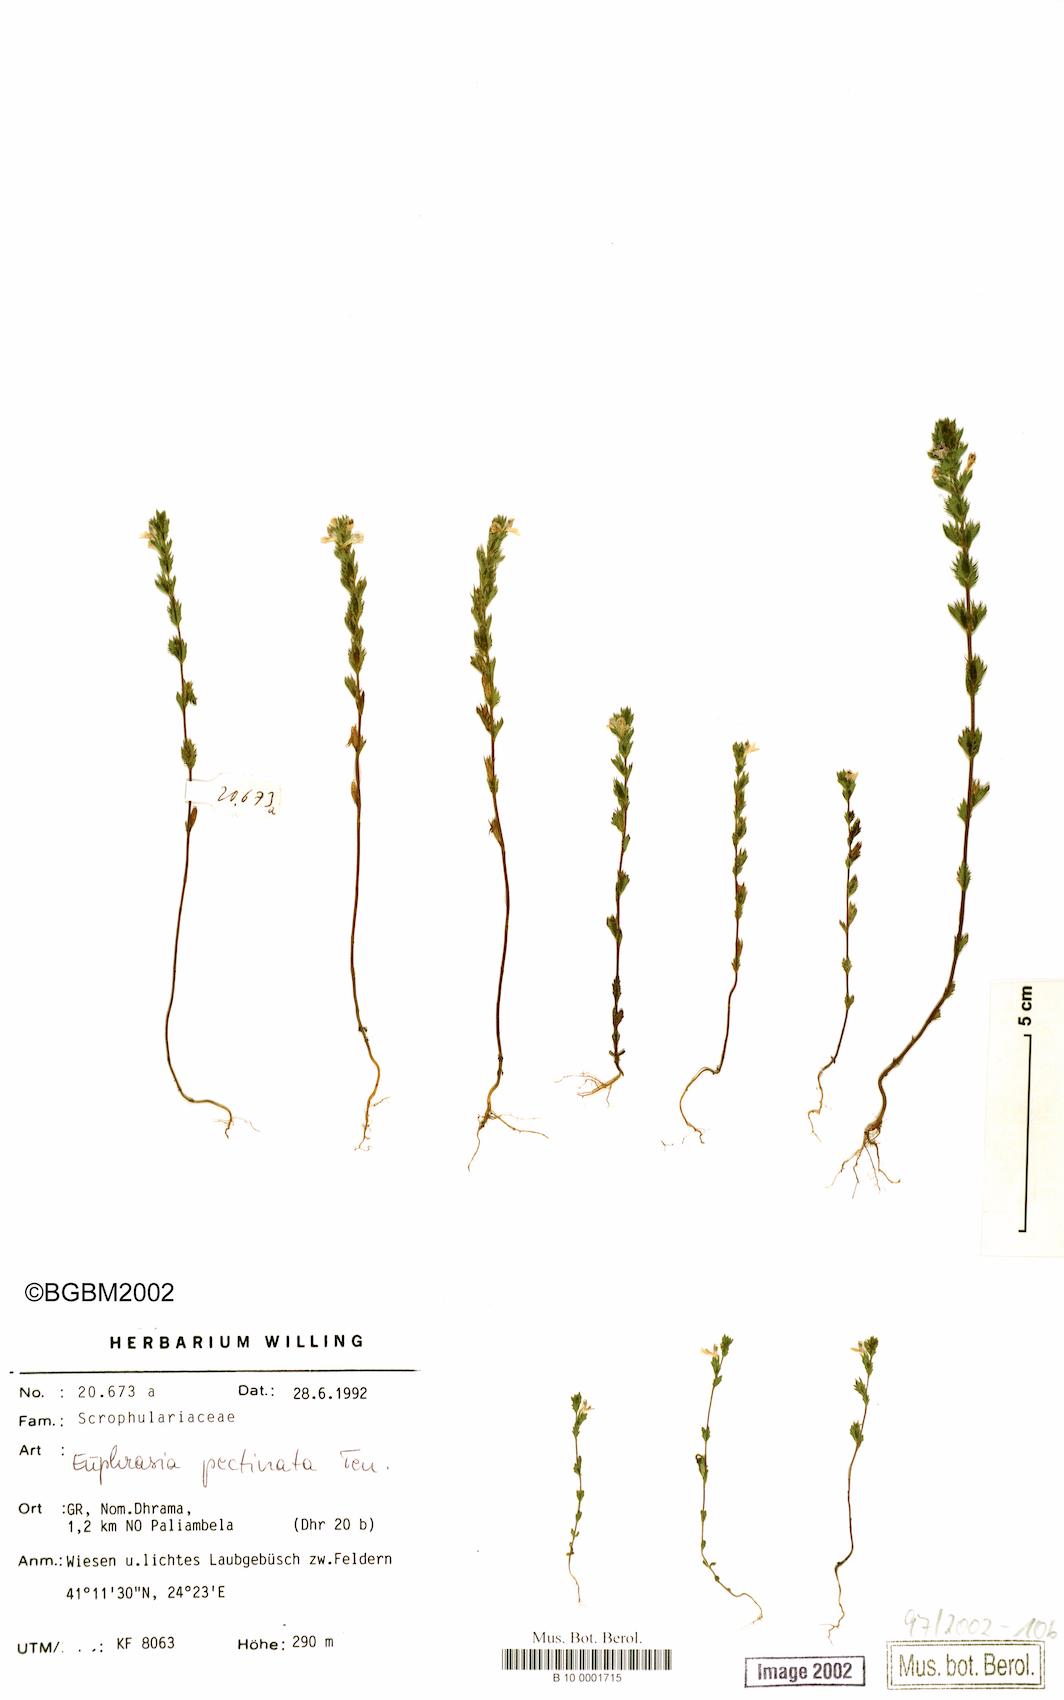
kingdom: Plantae
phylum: Tracheophyta
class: Magnoliopsida
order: Lamiales
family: Orobanchaceae
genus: Euphrasia
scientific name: Euphrasia pectinata
